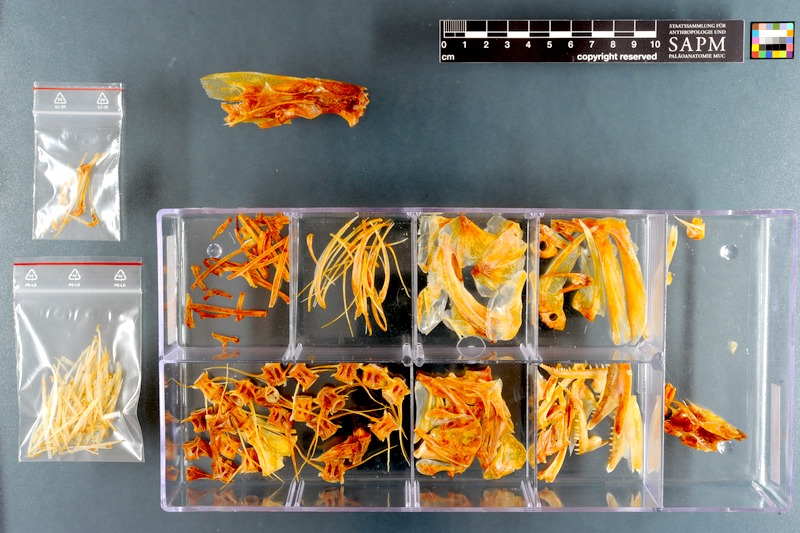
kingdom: Animalia
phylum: Chordata
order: Perciformes
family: Pomatomidae
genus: Pomatomus
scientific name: Pomatomus saltatrix
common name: Bluefish
